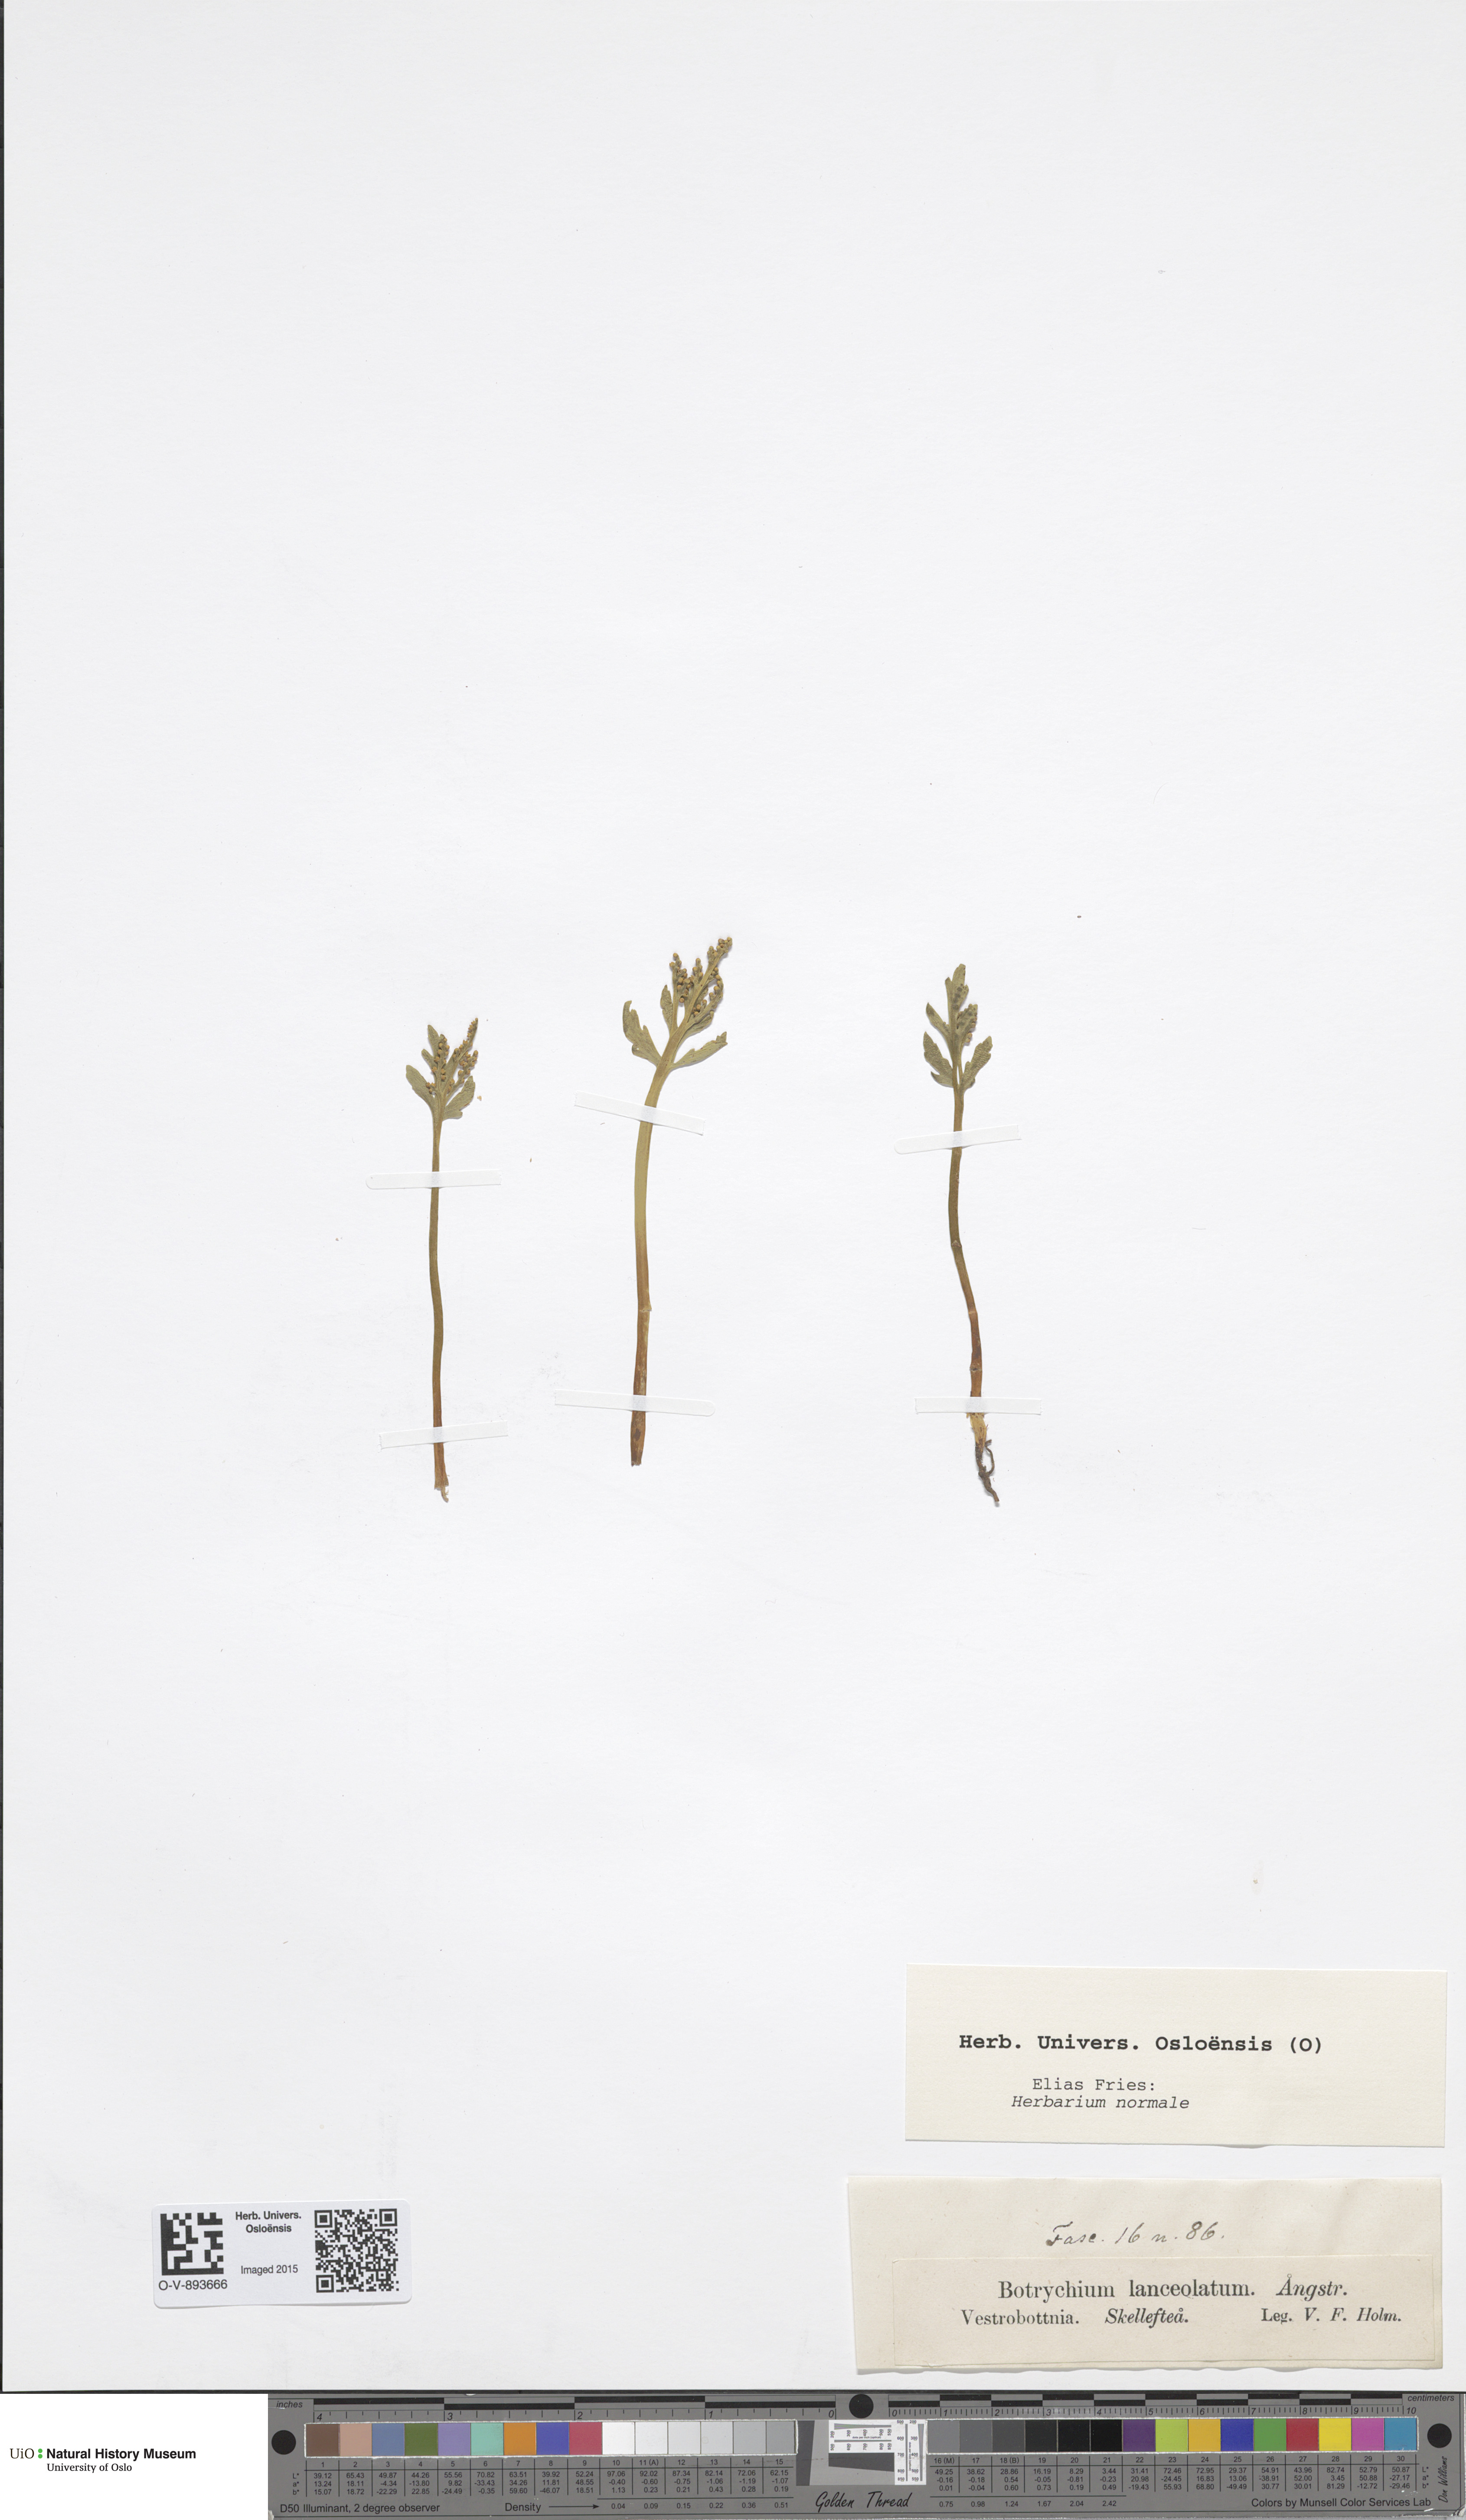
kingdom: Plantae
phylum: Tracheophyta
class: Polypodiopsida
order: Ophioglossales
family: Ophioglossaceae
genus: Botrychium
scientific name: Botrychium lanceolatum
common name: Lance-leaved moonwort
